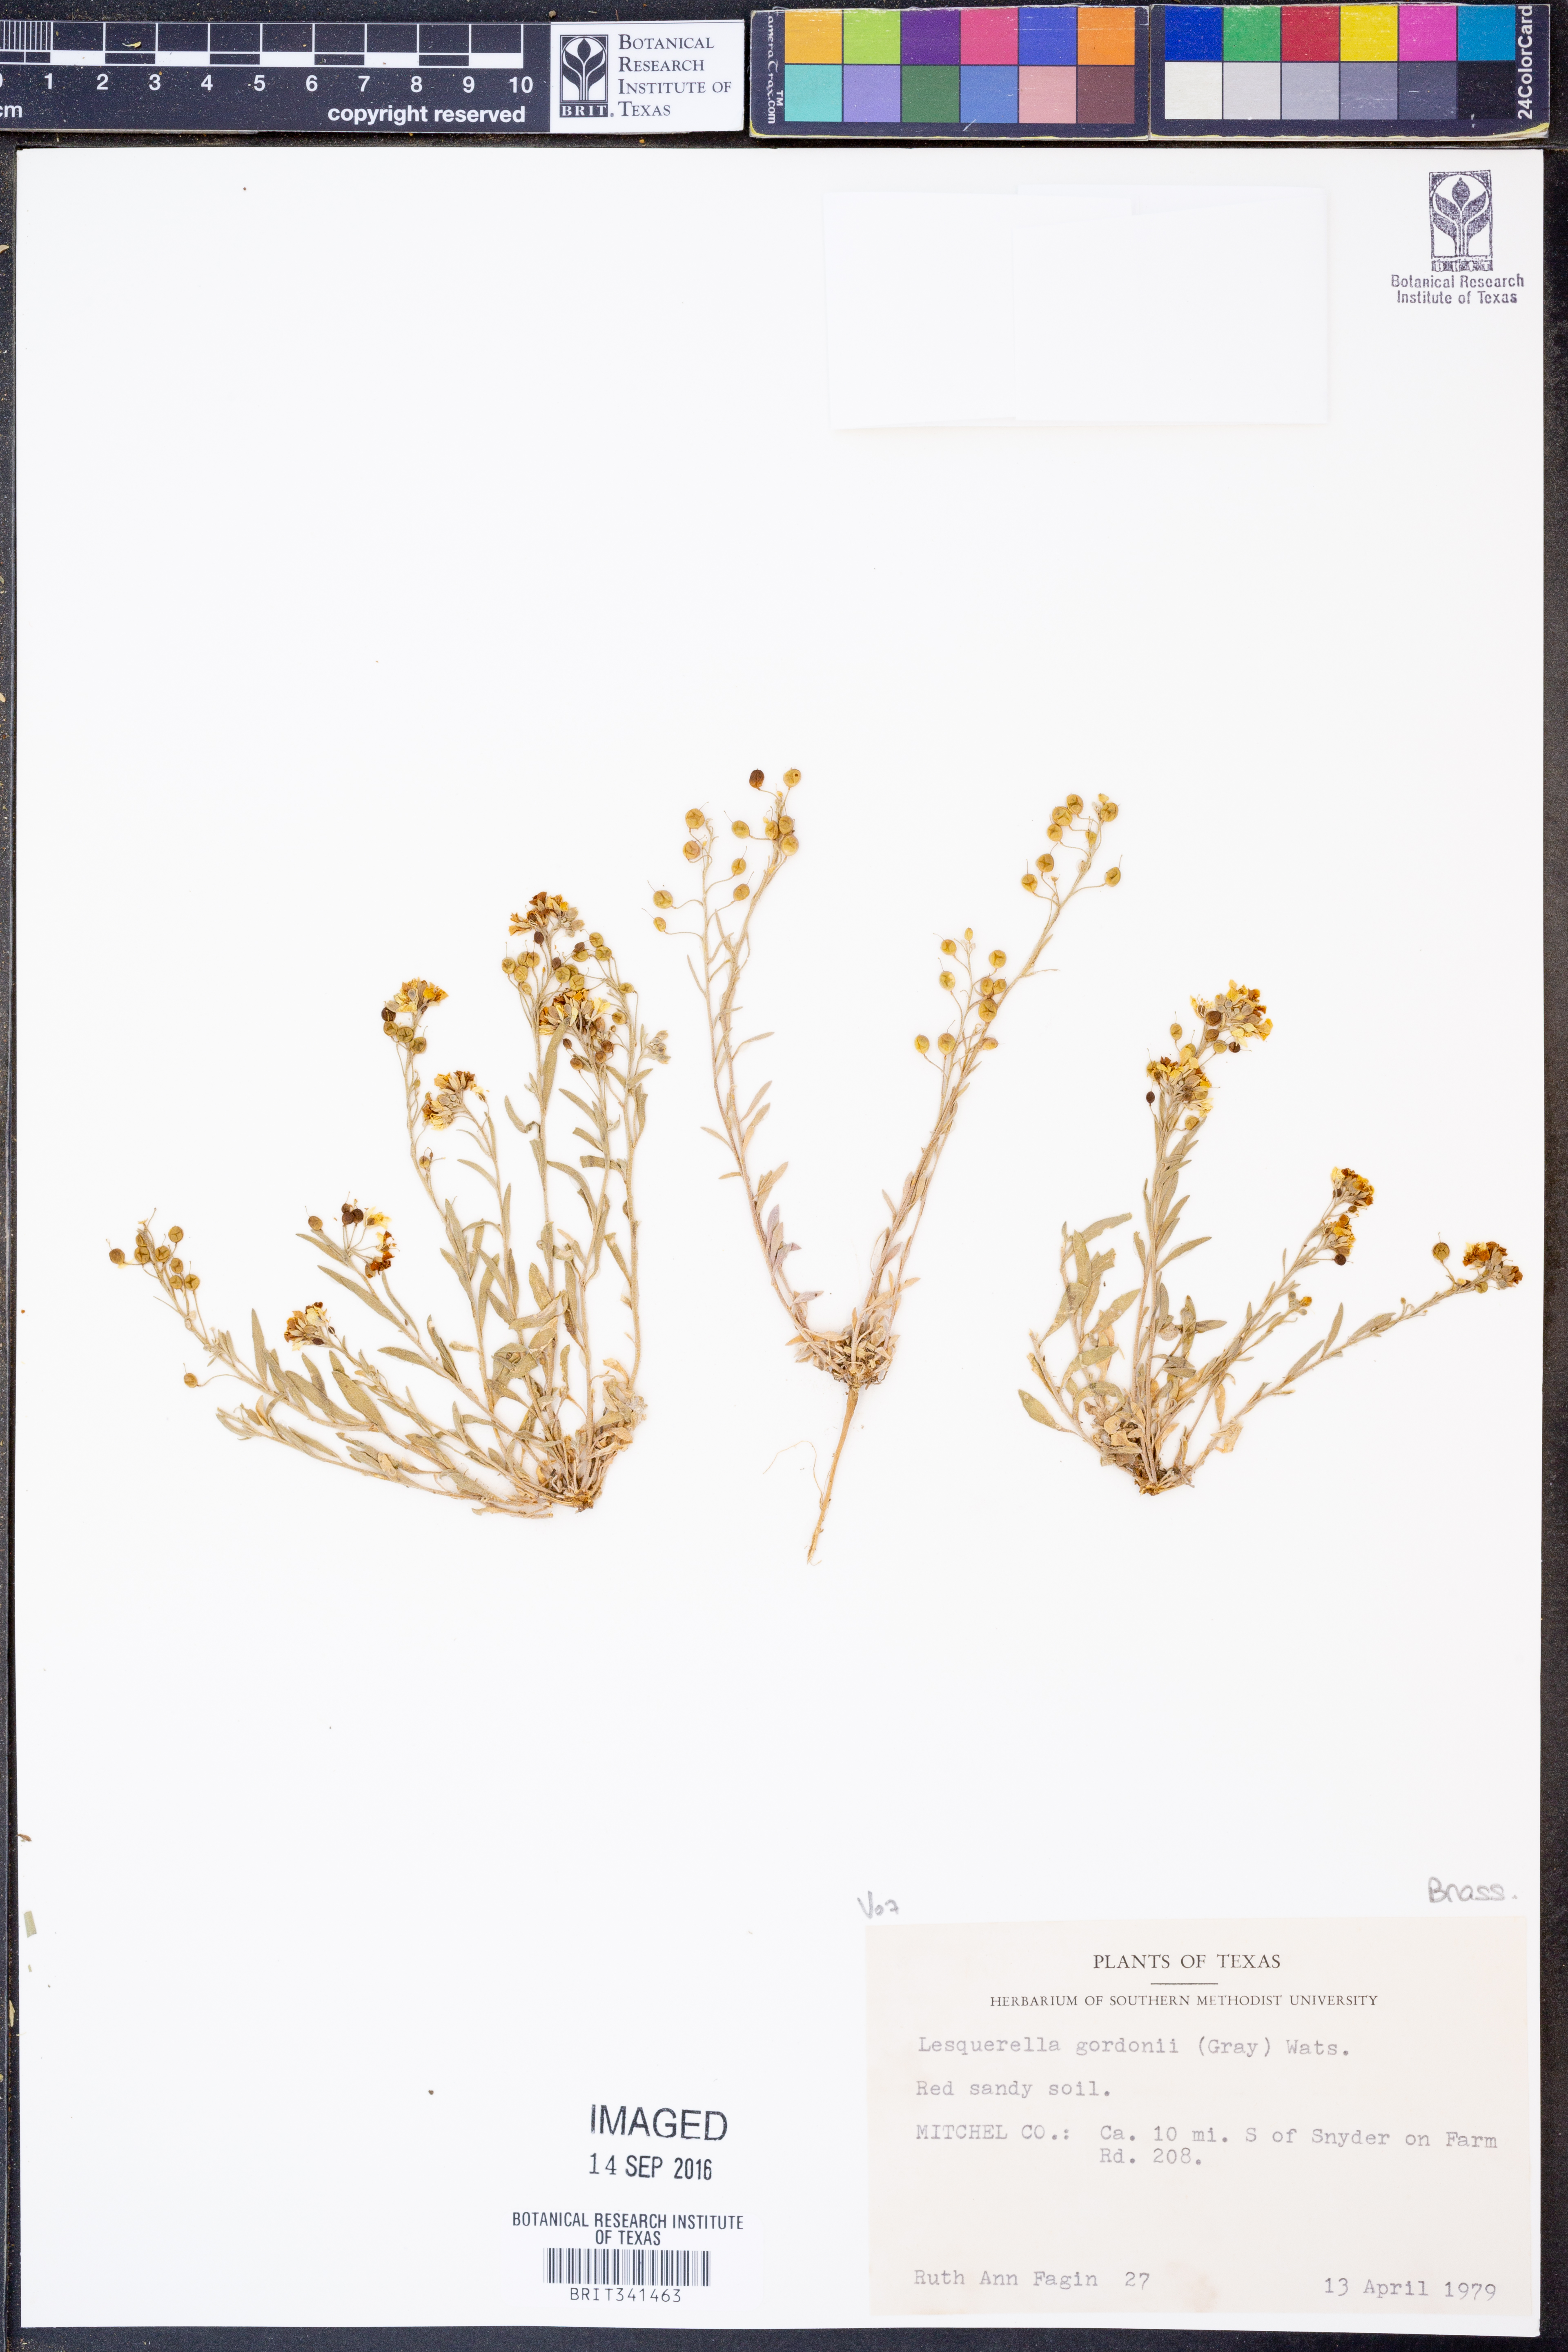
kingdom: Plantae
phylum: Tracheophyta
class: Magnoliopsida
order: Brassicales
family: Brassicaceae
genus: Physaria
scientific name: Physaria gordonii
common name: Gordon's bladderpod
